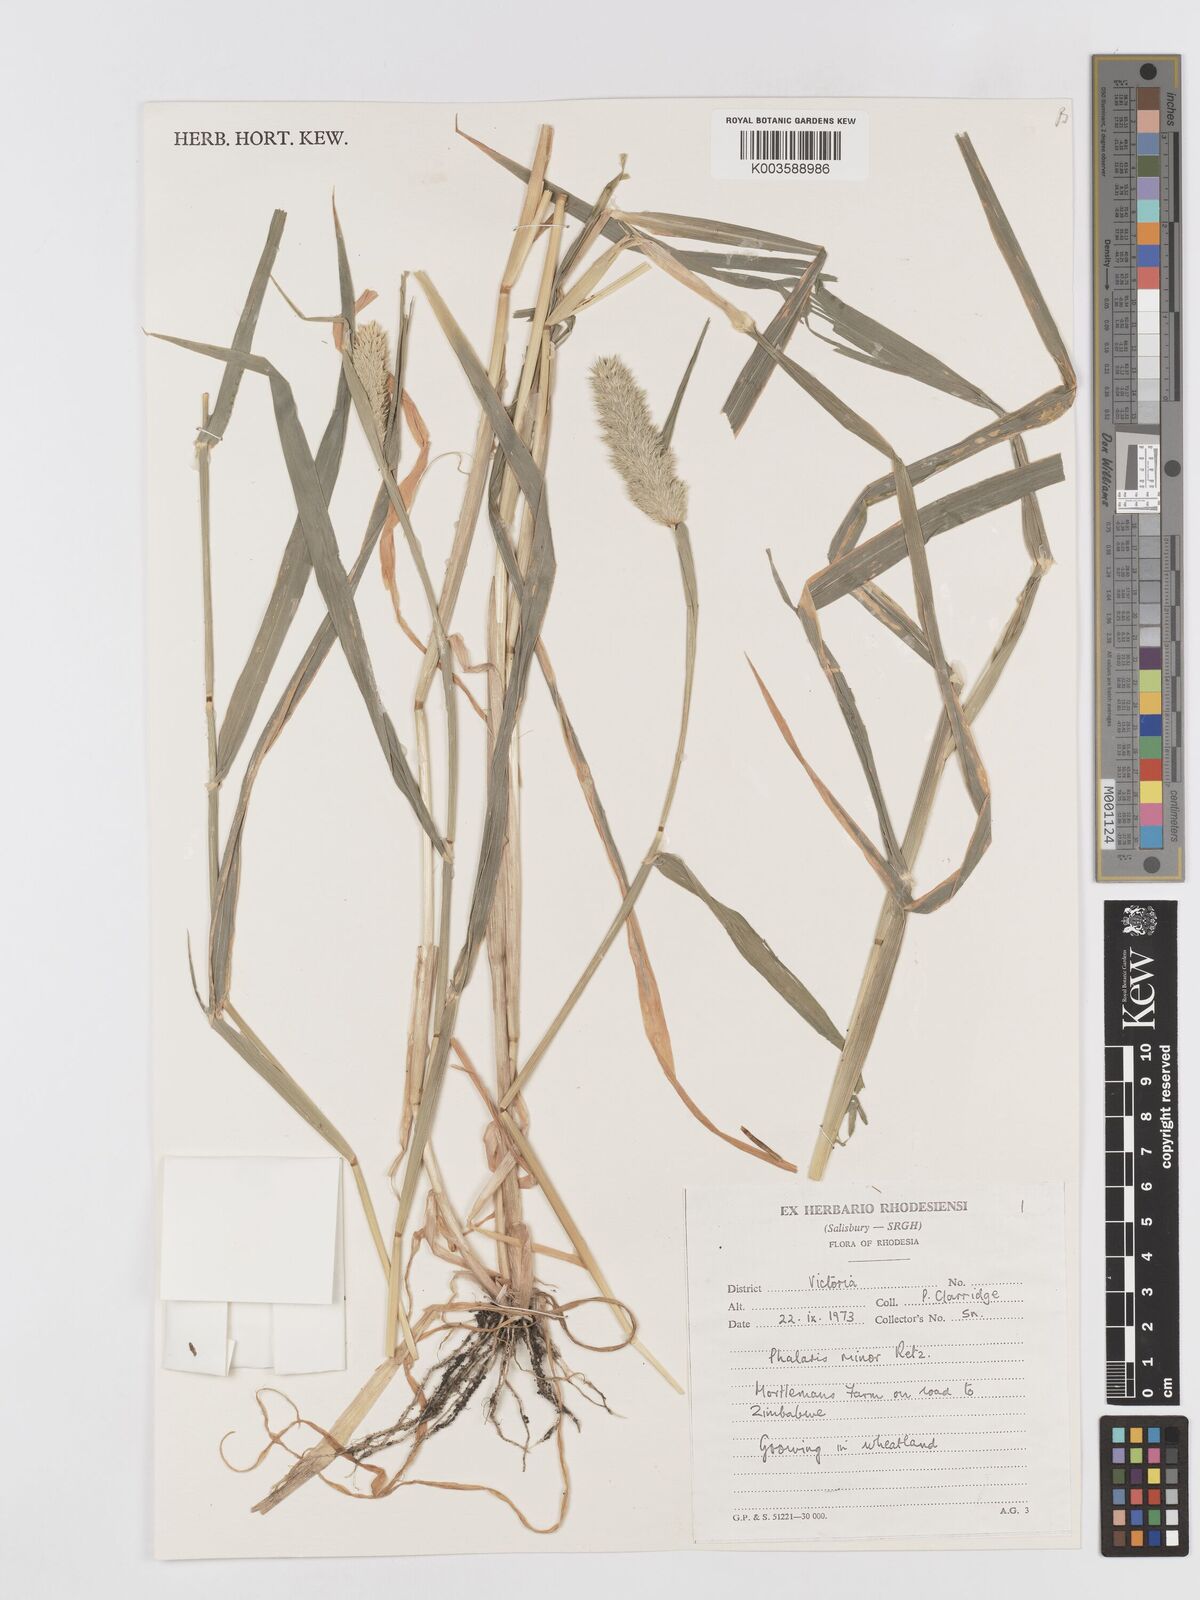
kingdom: Plantae
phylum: Tracheophyta
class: Liliopsida
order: Poales
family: Poaceae
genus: Phalaris
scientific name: Phalaris minor
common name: Littleseed canarygrass
